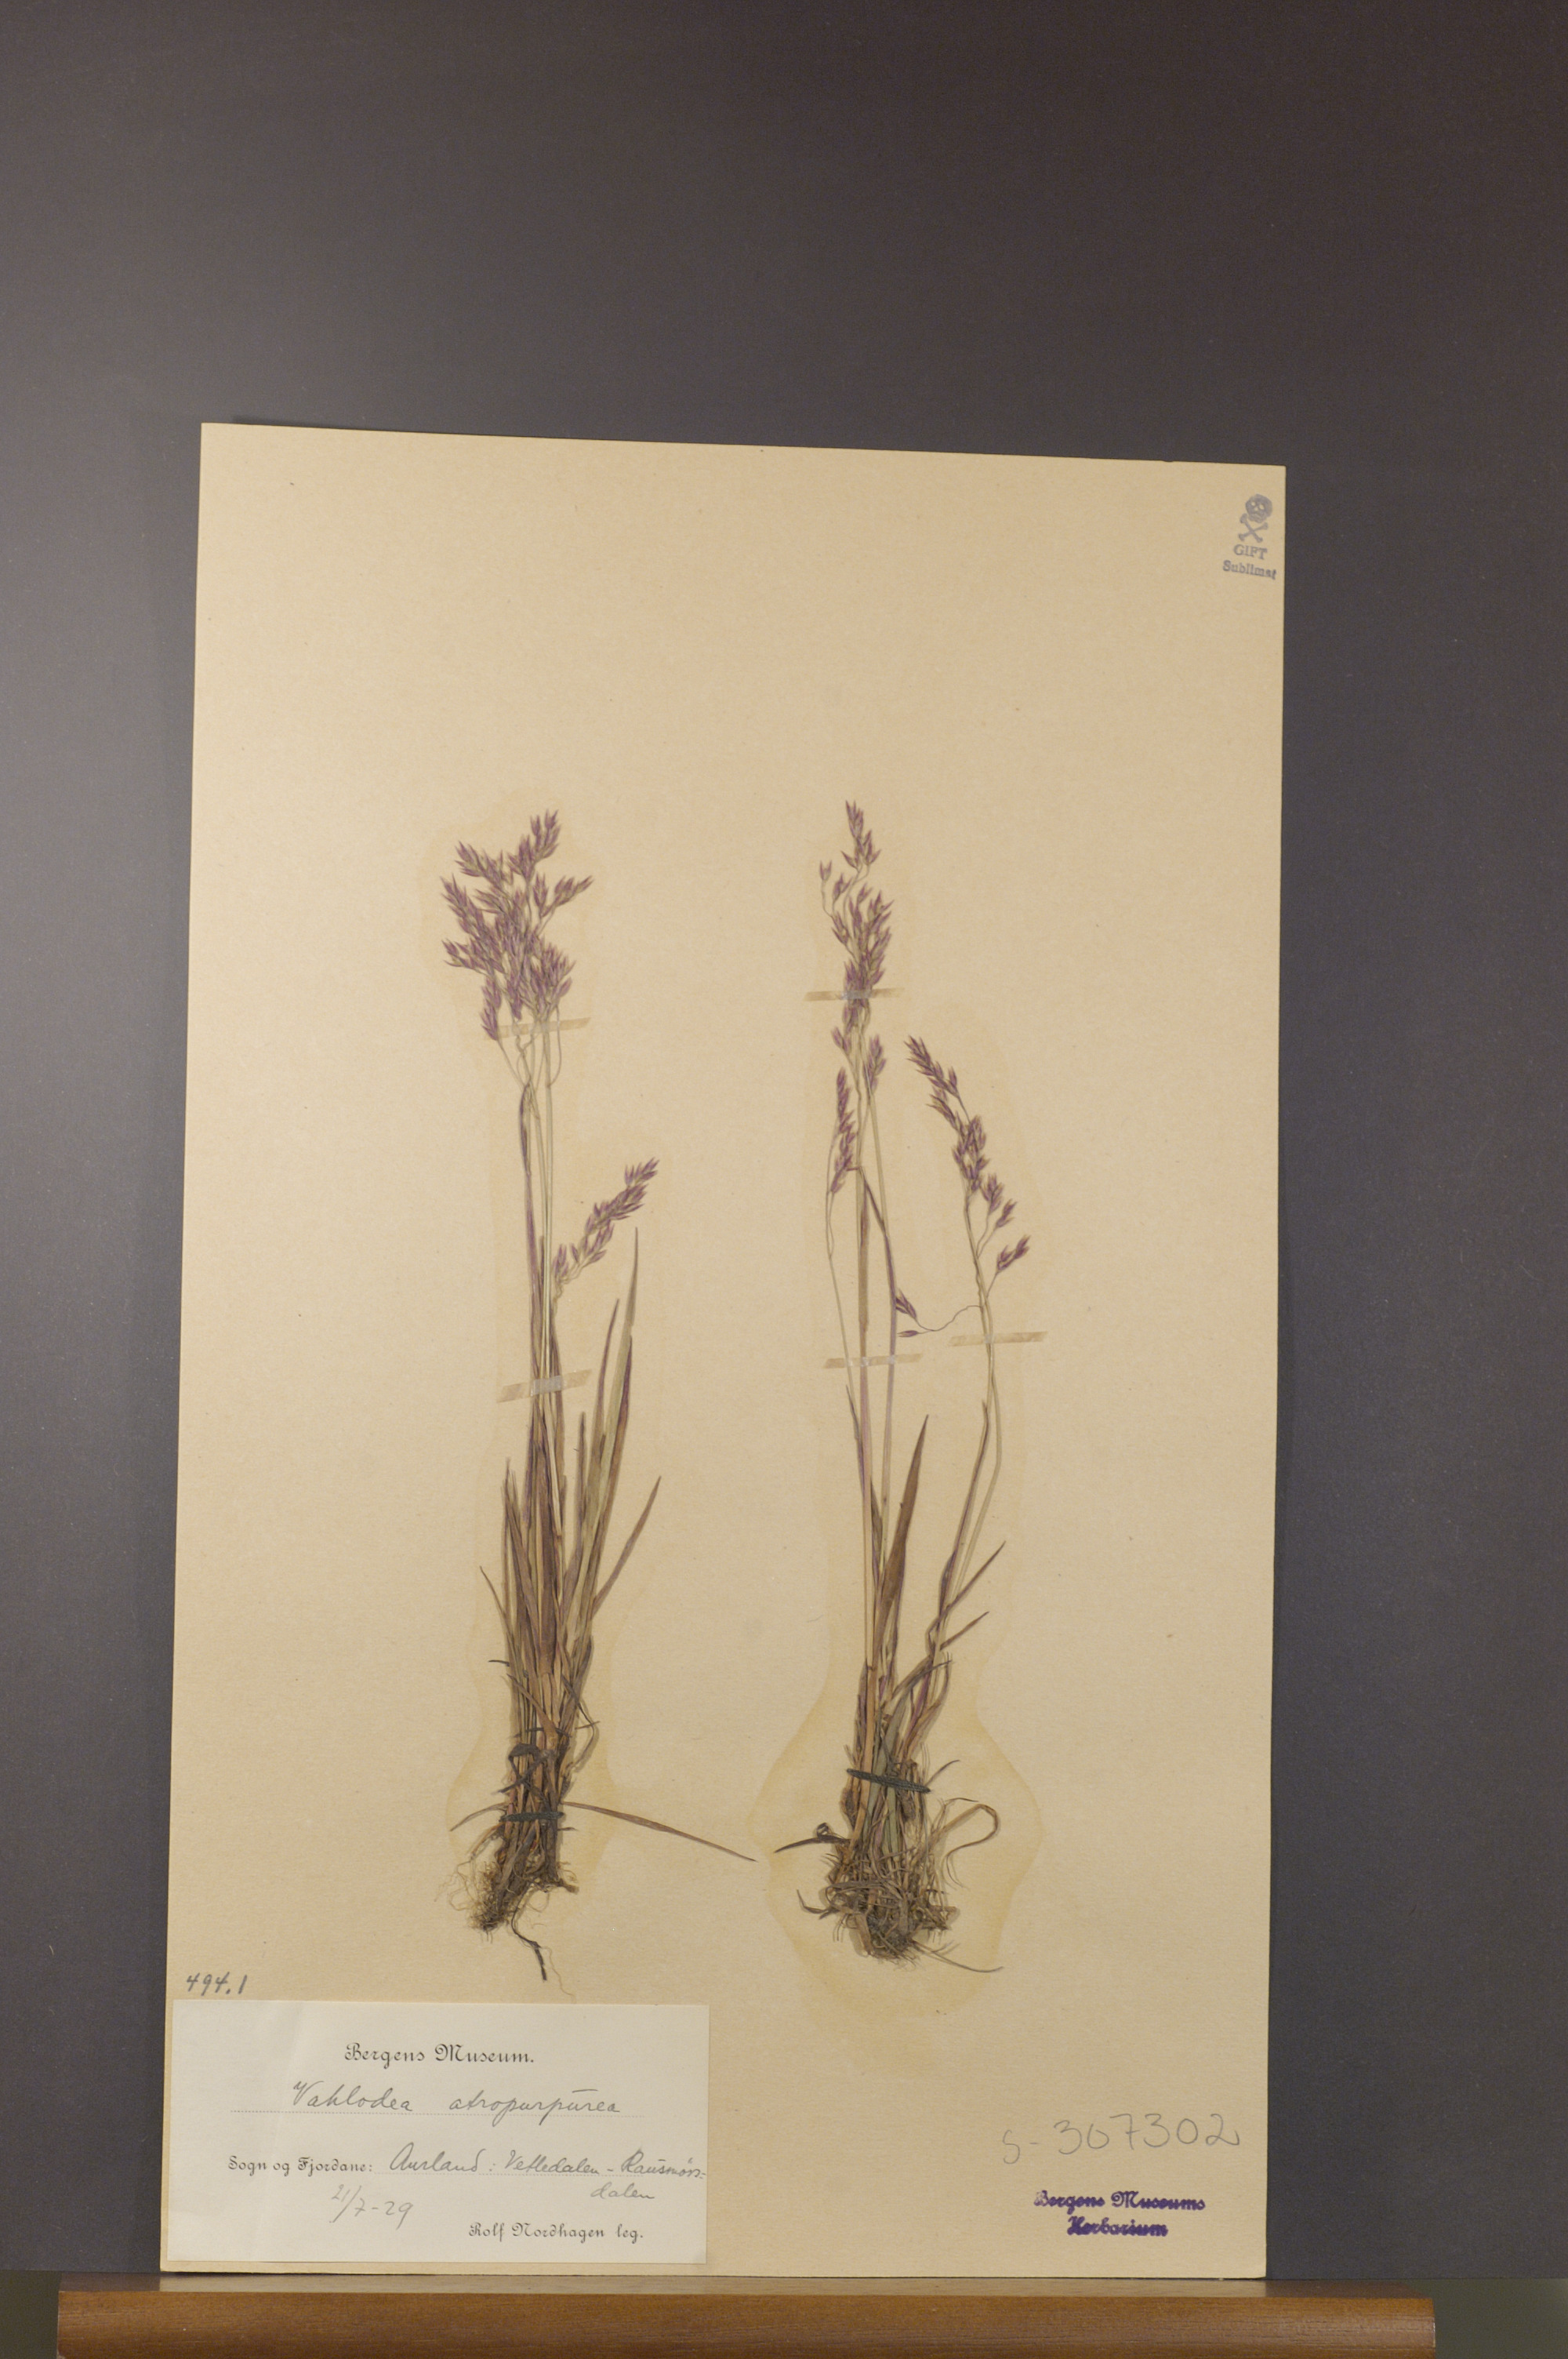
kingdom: Plantae
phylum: Tracheophyta
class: Liliopsida
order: Poales
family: Poaceae
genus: Vahlodea
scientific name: Vahlodea atropurpurea
